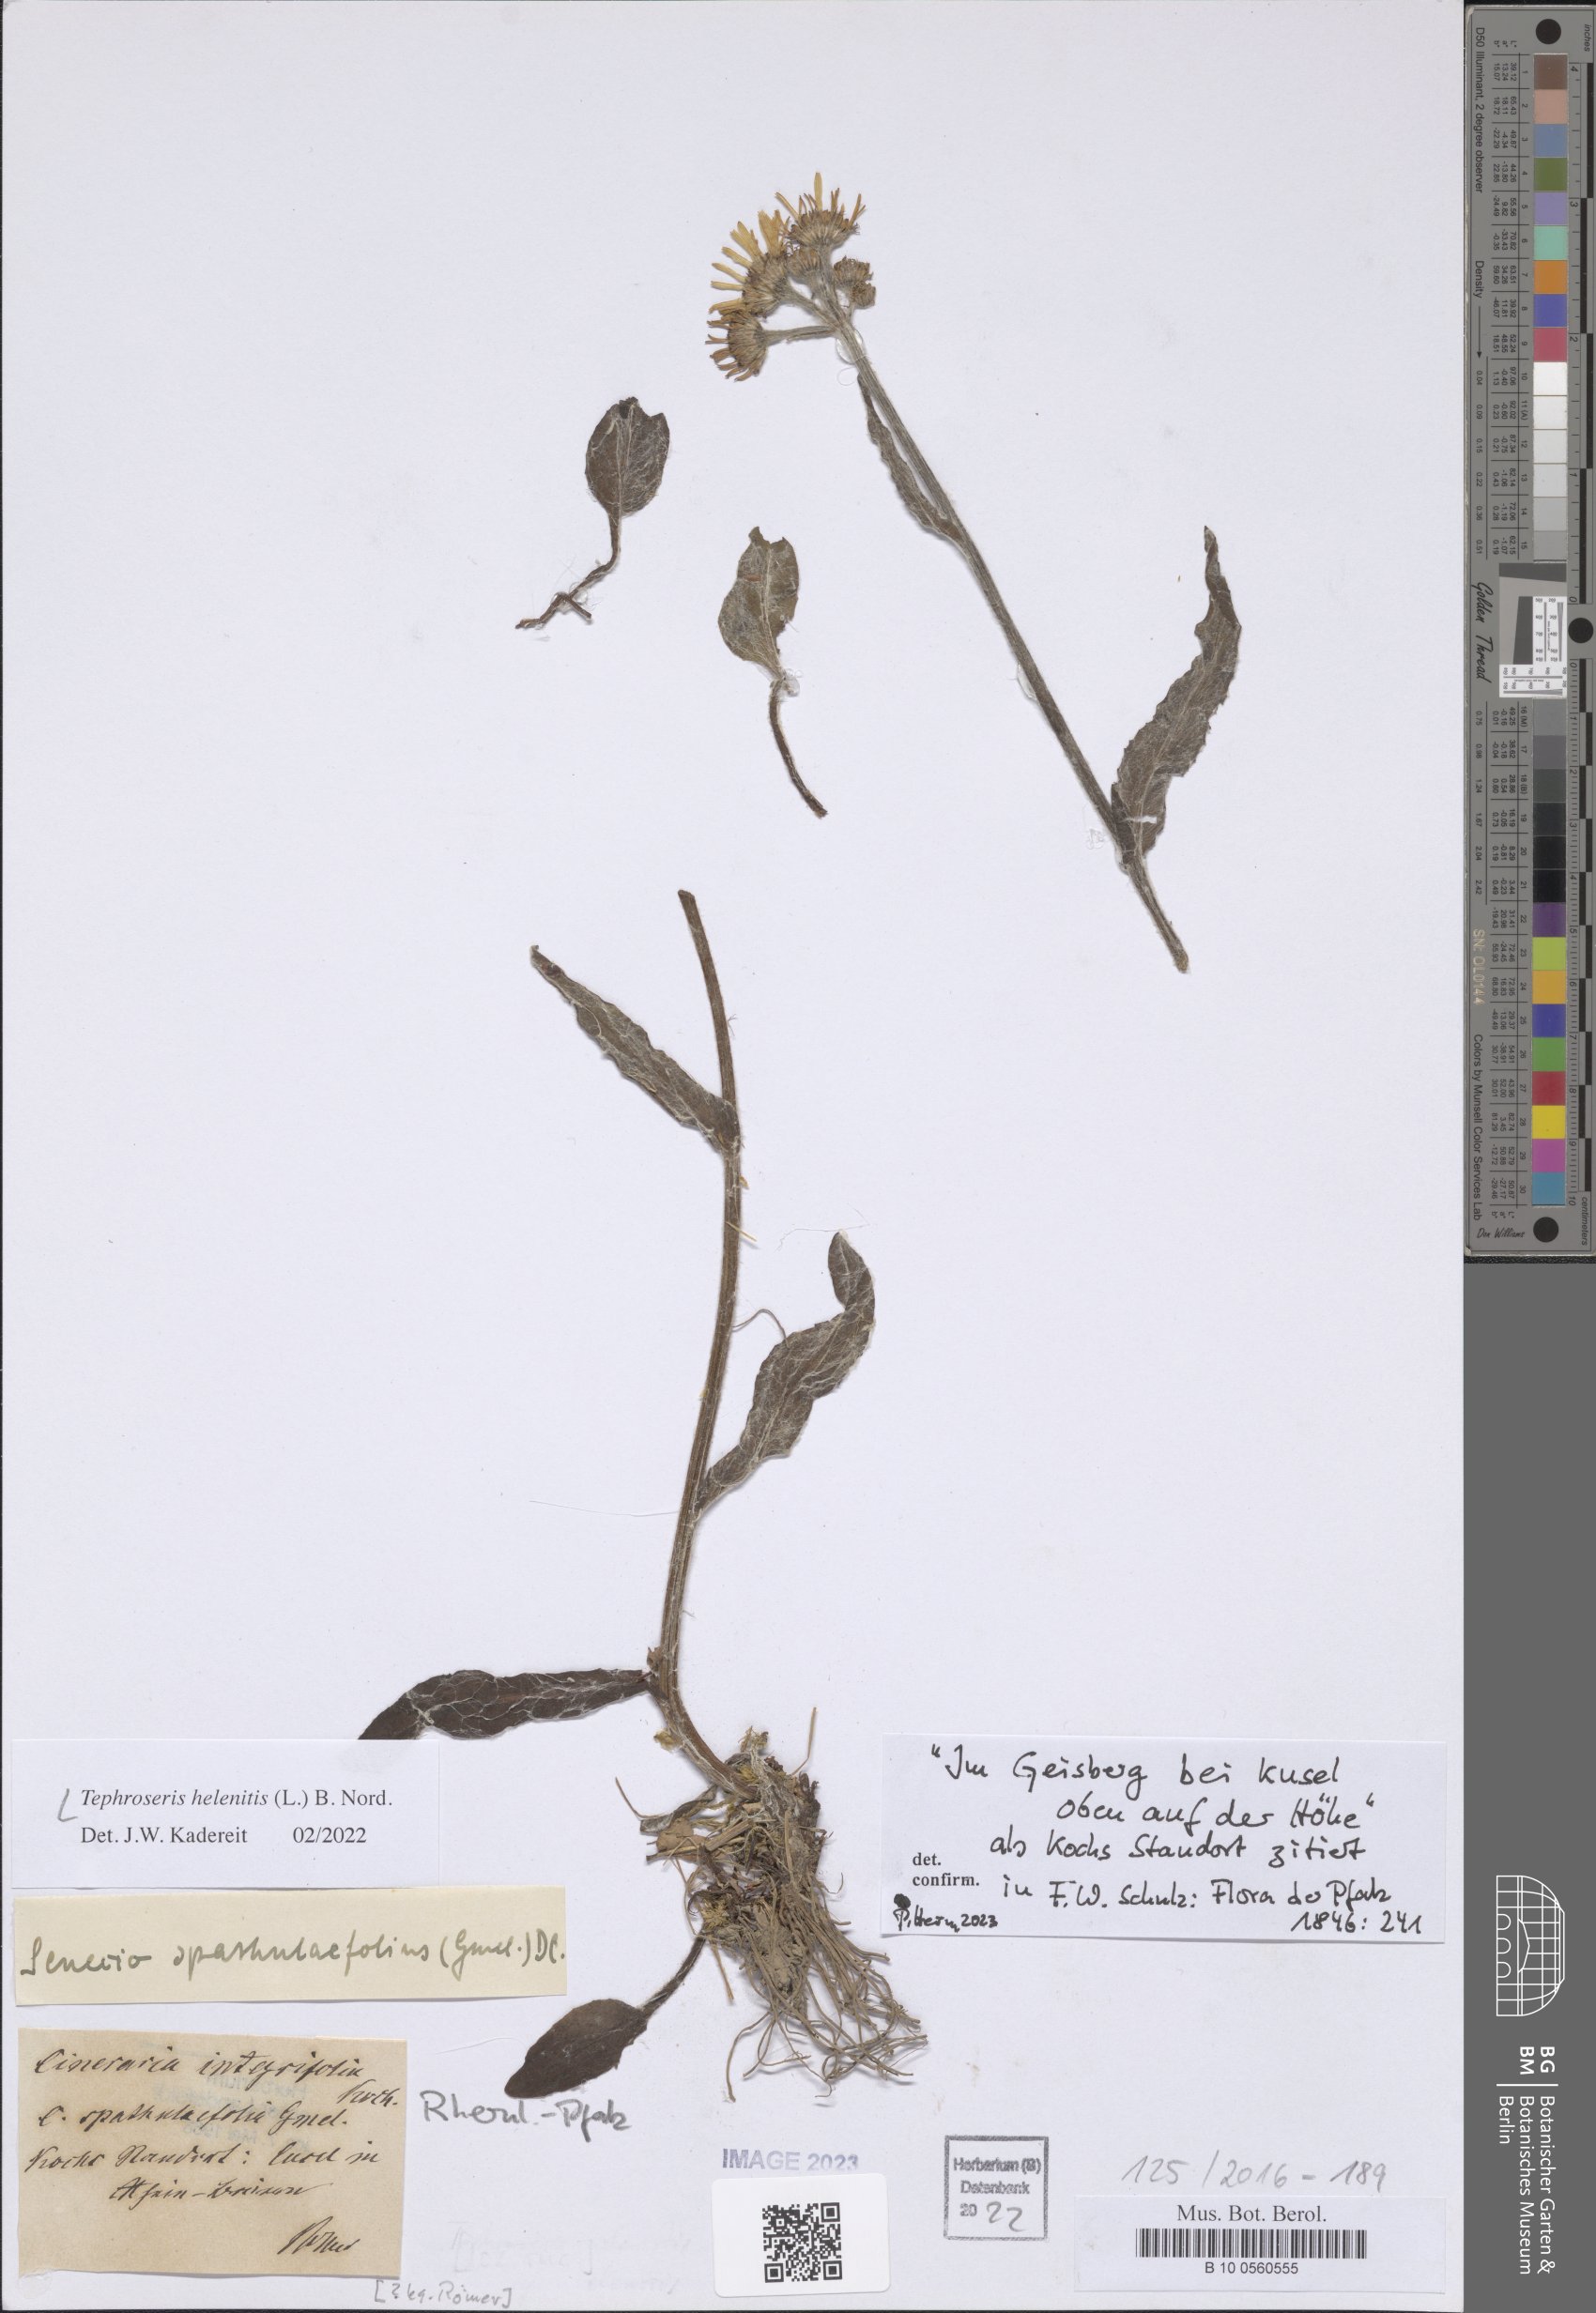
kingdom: Plantae
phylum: Tracheophyta
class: Magnoliopsida
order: Asterales
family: Asteraceae
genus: Tephroseris
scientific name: Tephroseris helenitis
